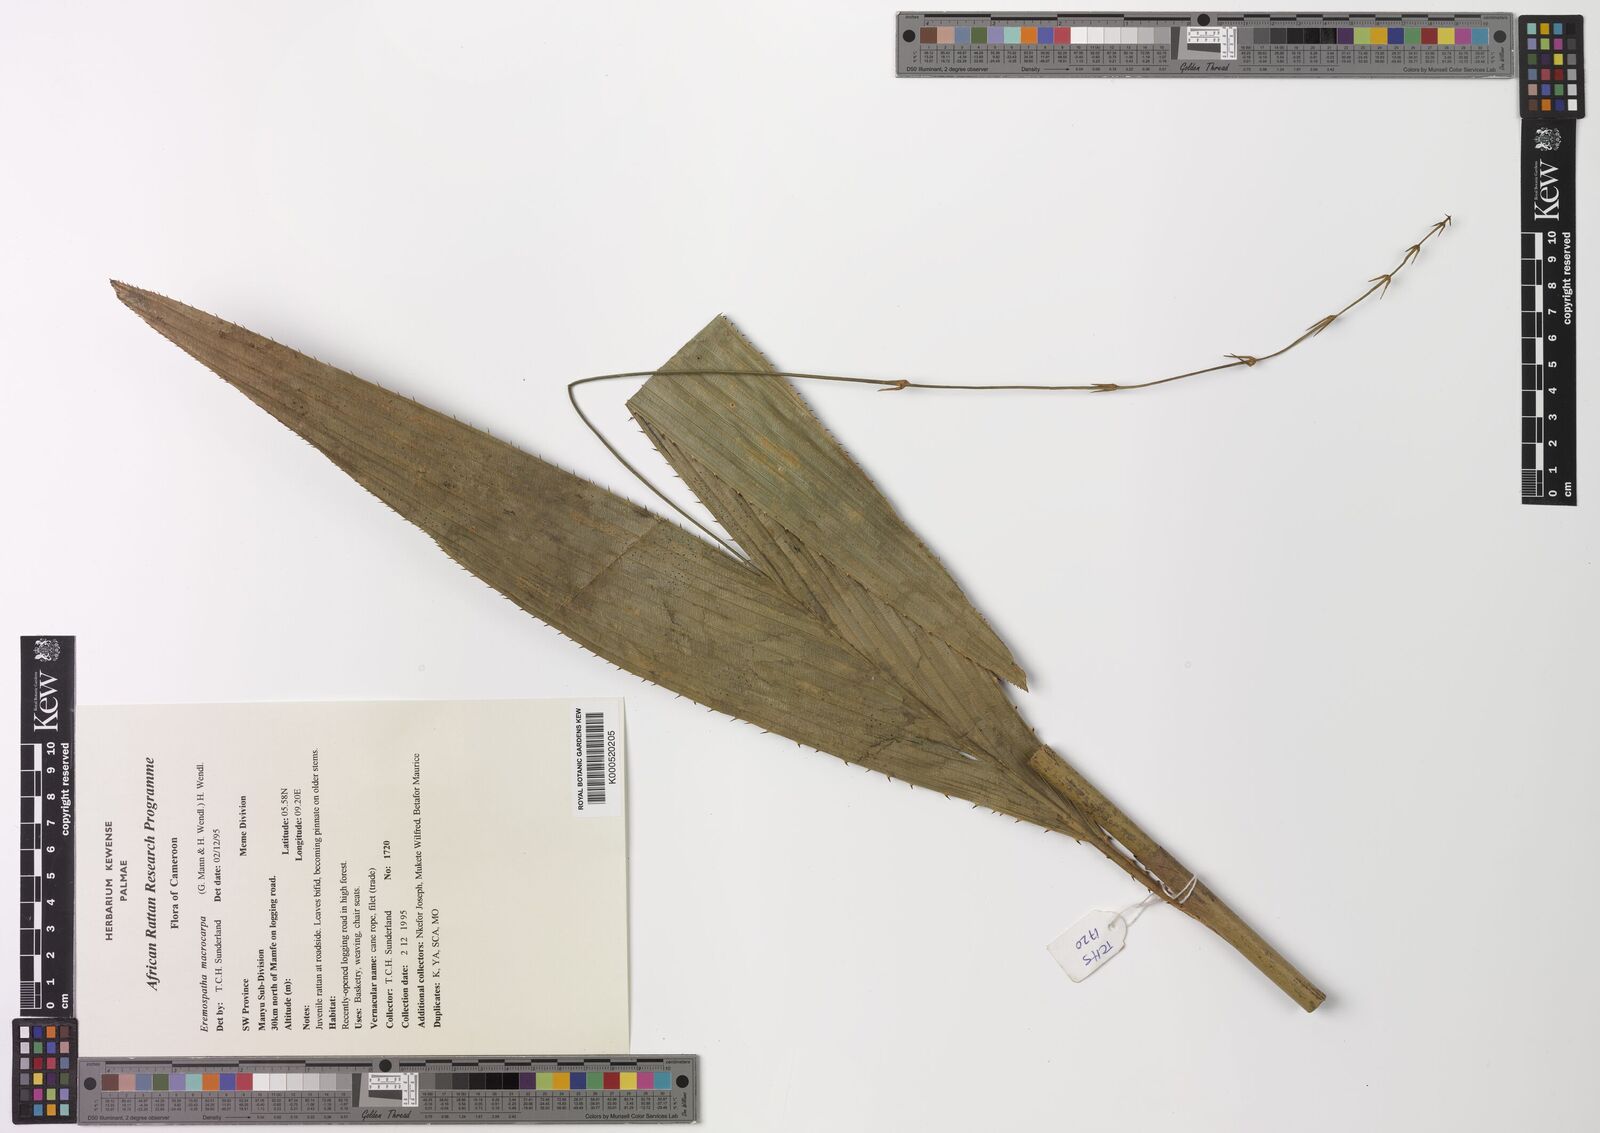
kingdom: Plantae
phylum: Tracheophyta
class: Liliopsida
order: Arecales
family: Arecaceae
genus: Eremospatha
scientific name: Eremospatha
